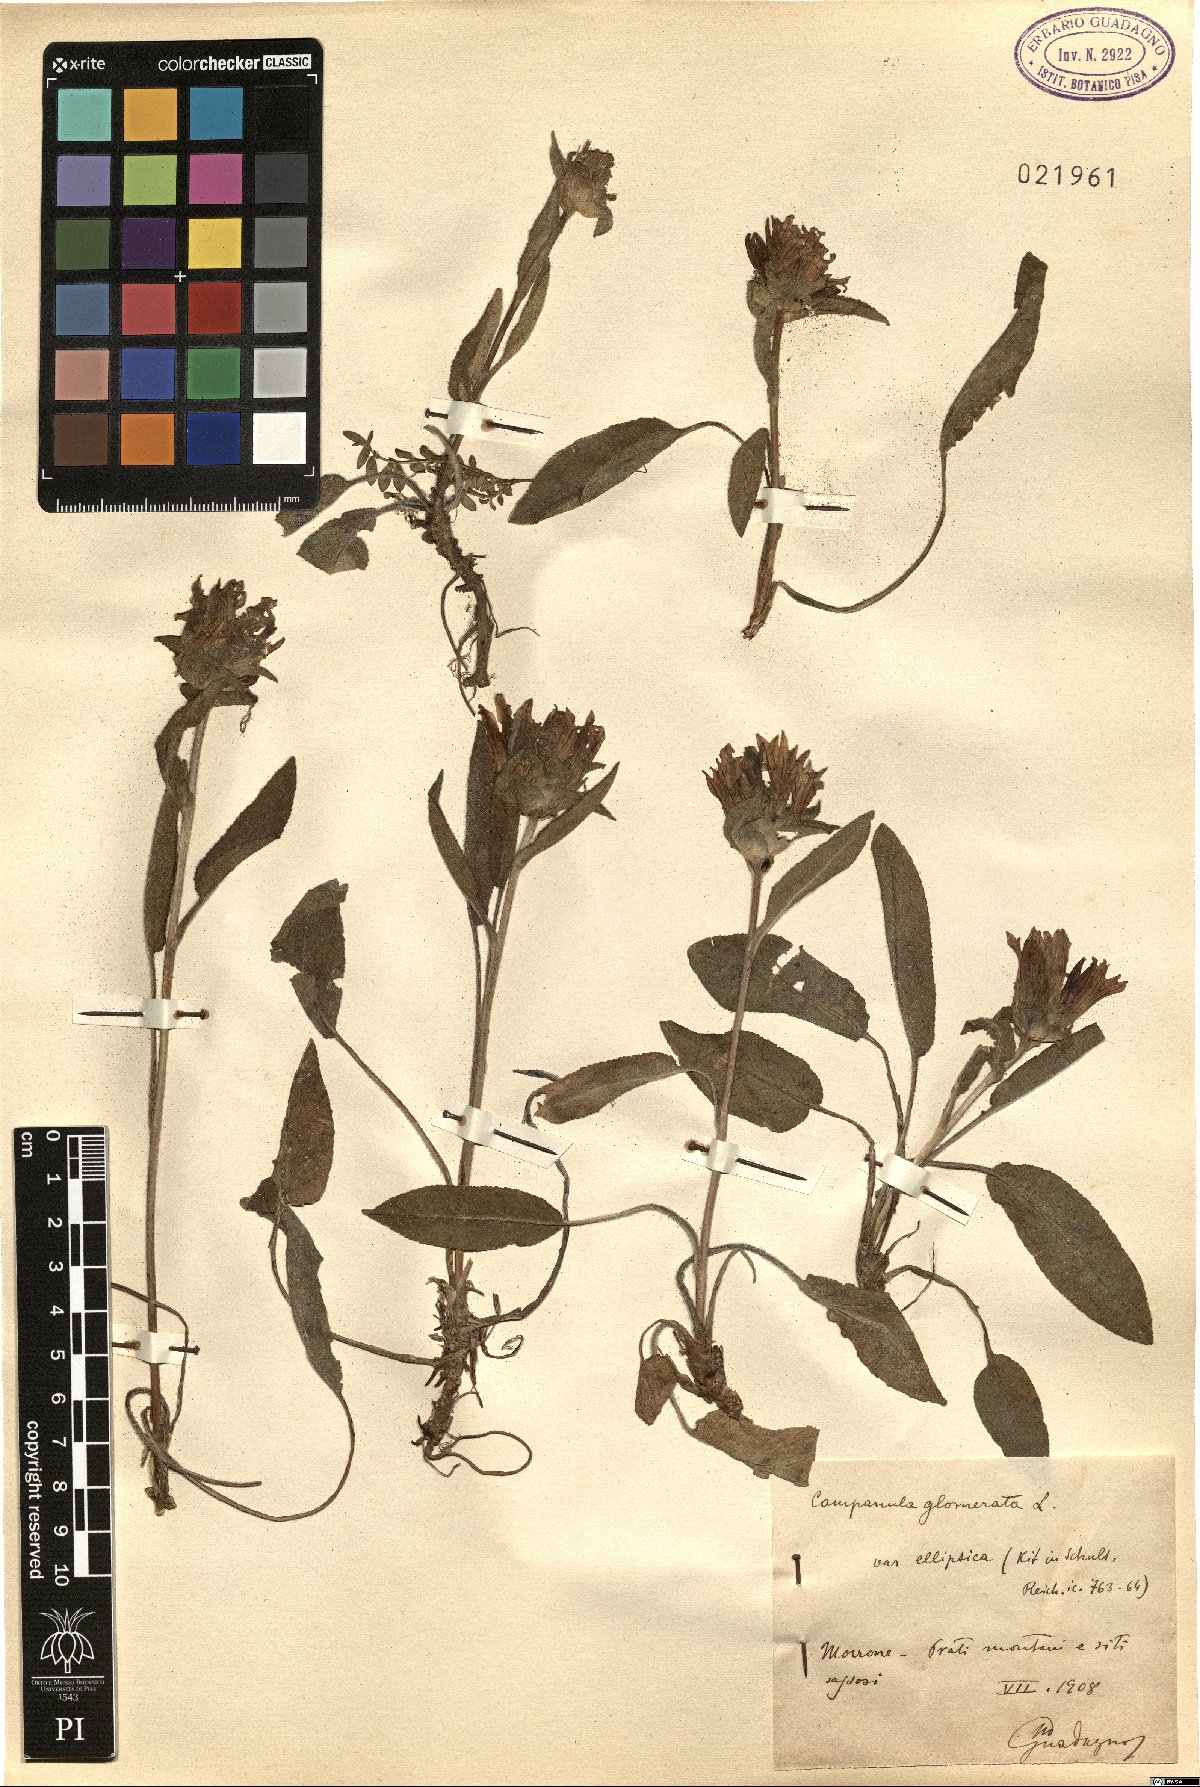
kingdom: Plantae
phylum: Tracheophyta
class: Magnoliopsida
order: Asterales
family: Campanulaceae
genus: Campanula
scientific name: Campanula glomerata
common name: Clustered bellflower
